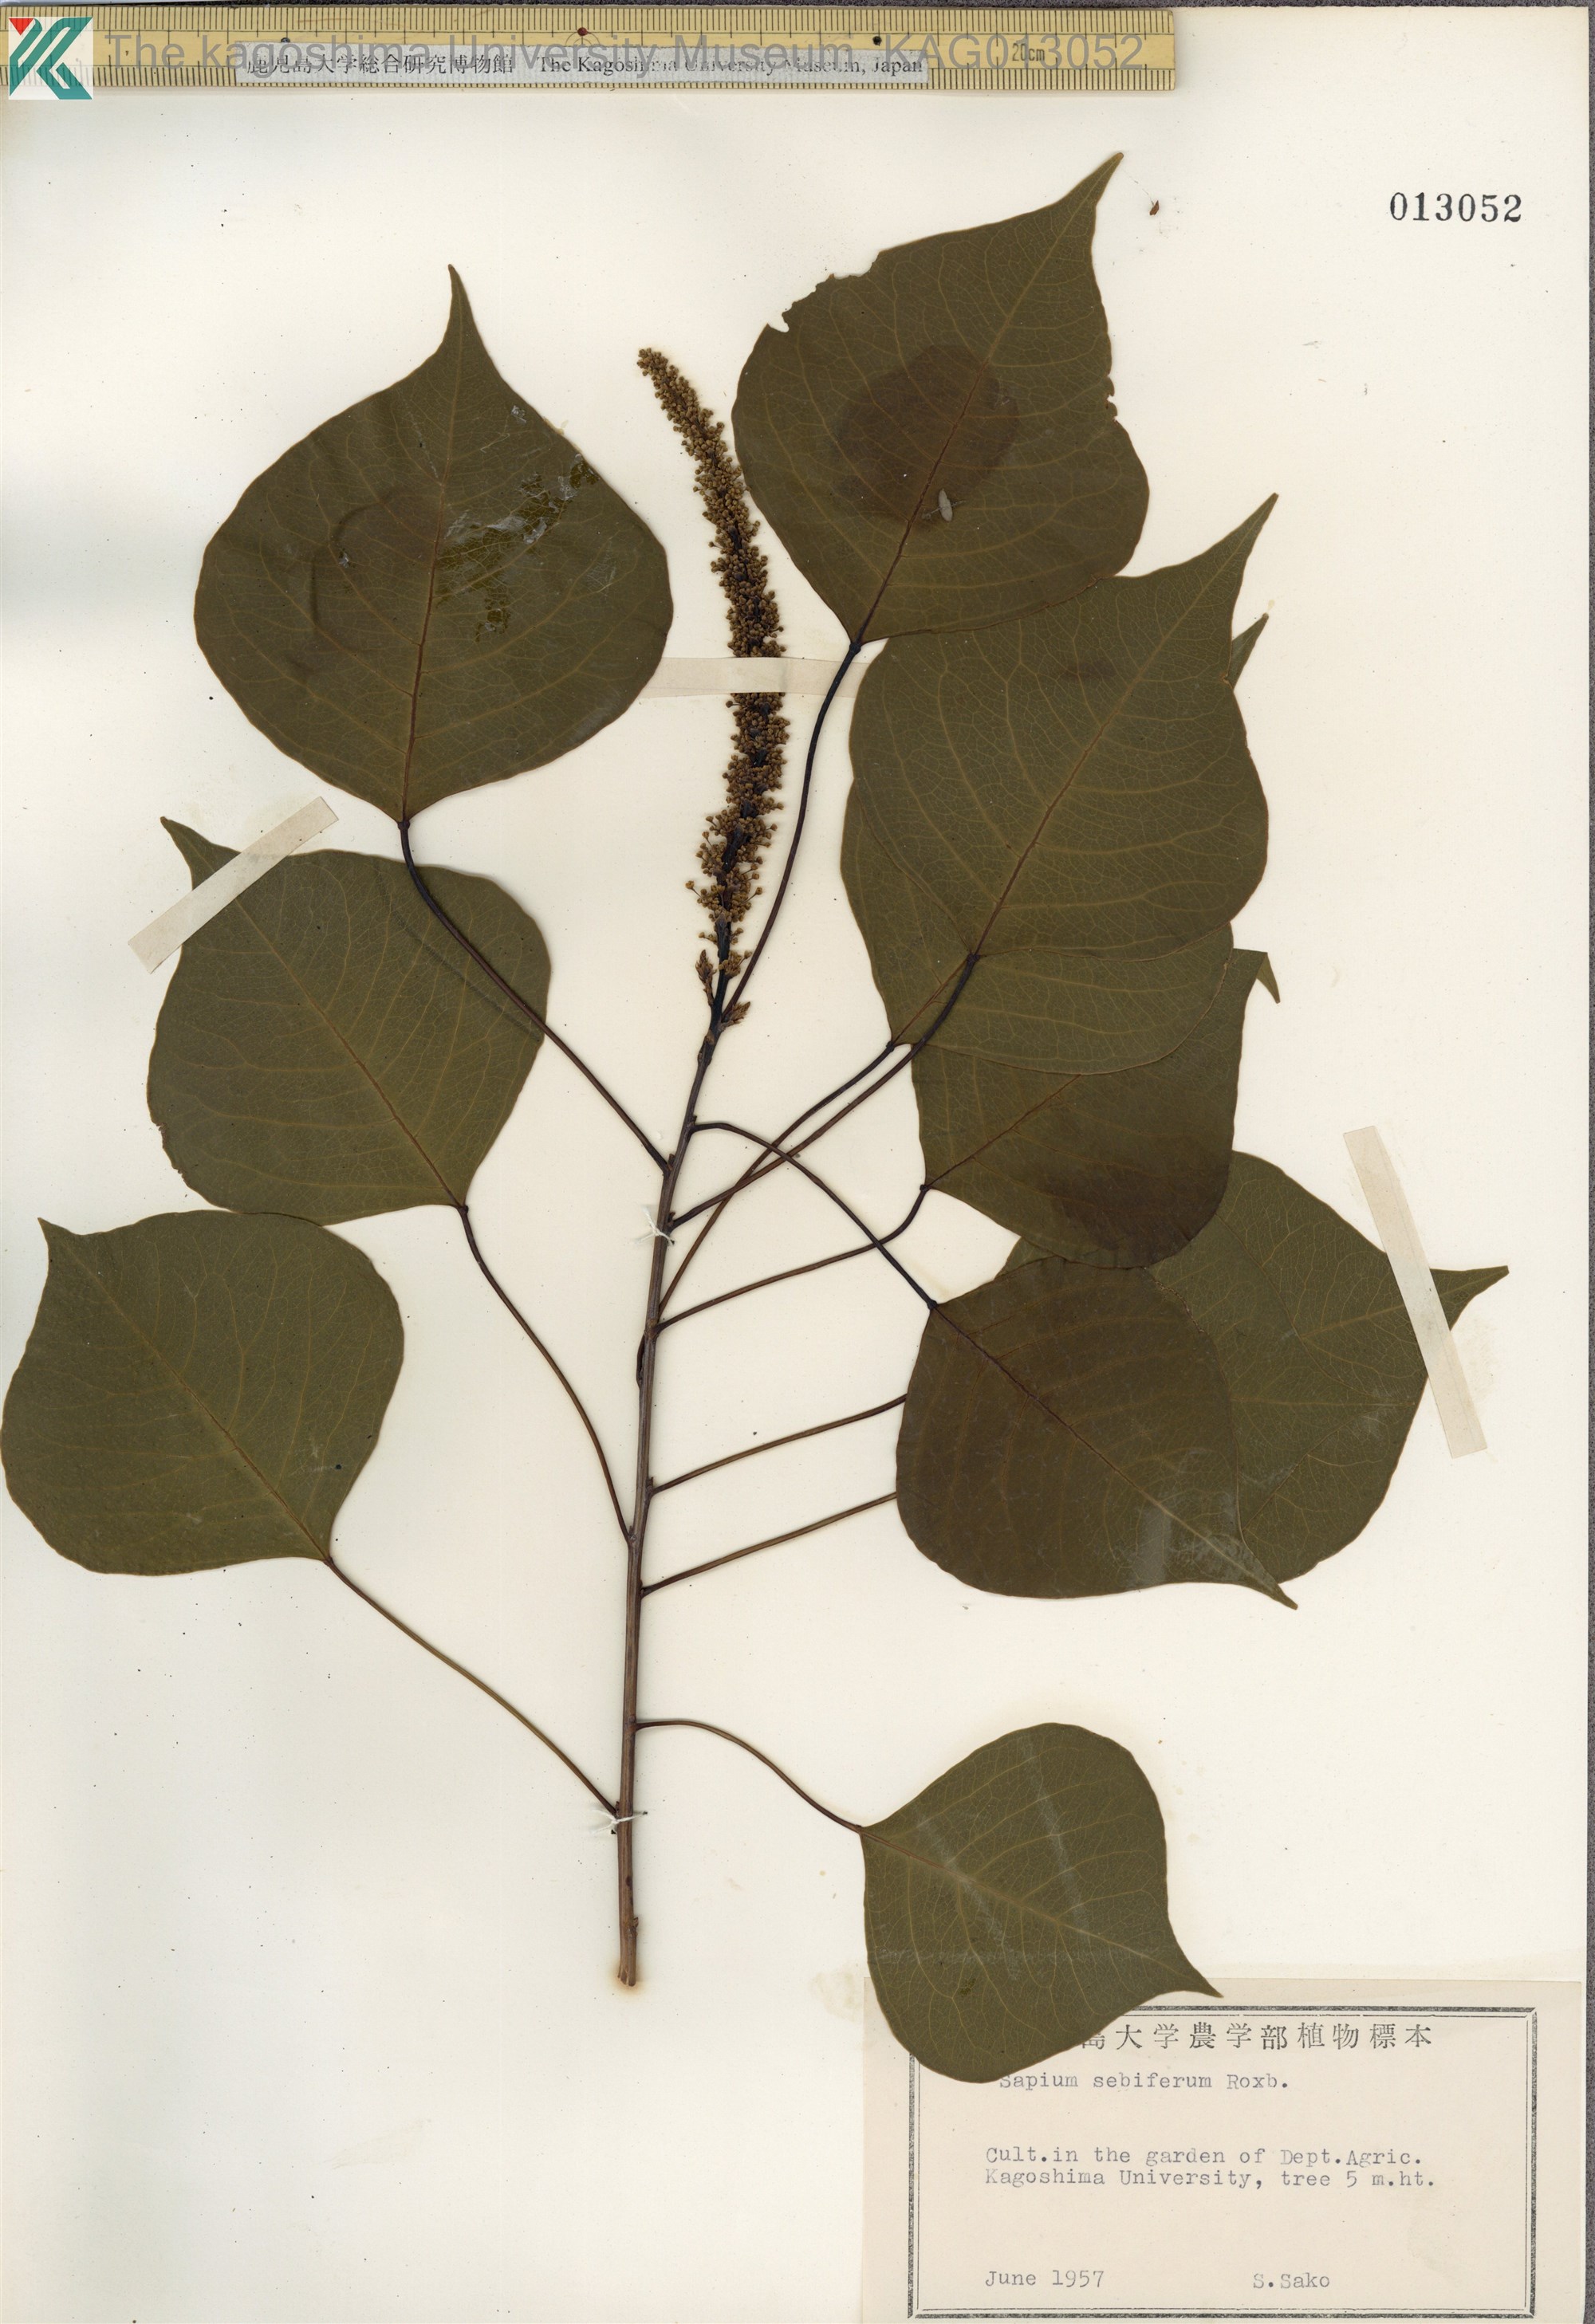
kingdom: Plantae
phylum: Tracheophyta
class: Magnoliopsida
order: Malpighiales
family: Euphorbiaceae
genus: Triadica
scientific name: Triadica sebifera
